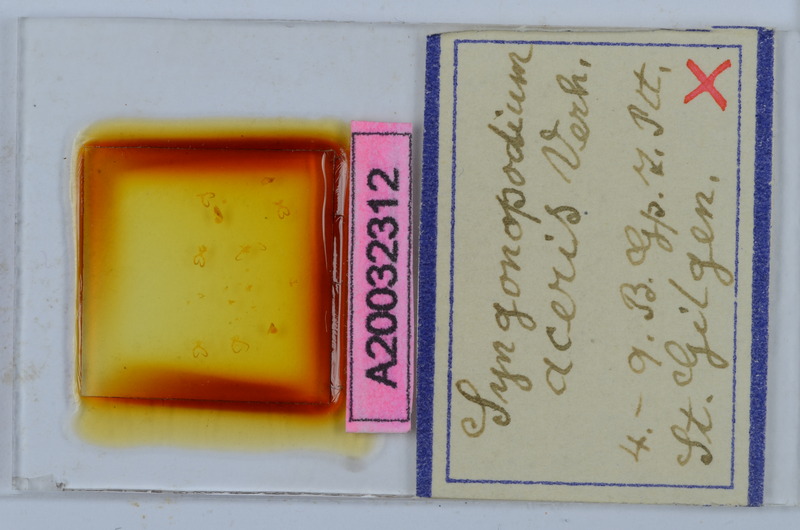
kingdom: Animalia
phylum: Arthropoda
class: Diplopoda
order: Chordeumatida
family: Attemsiidae
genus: Syngonopodium
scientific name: Syngonopodium aceris
